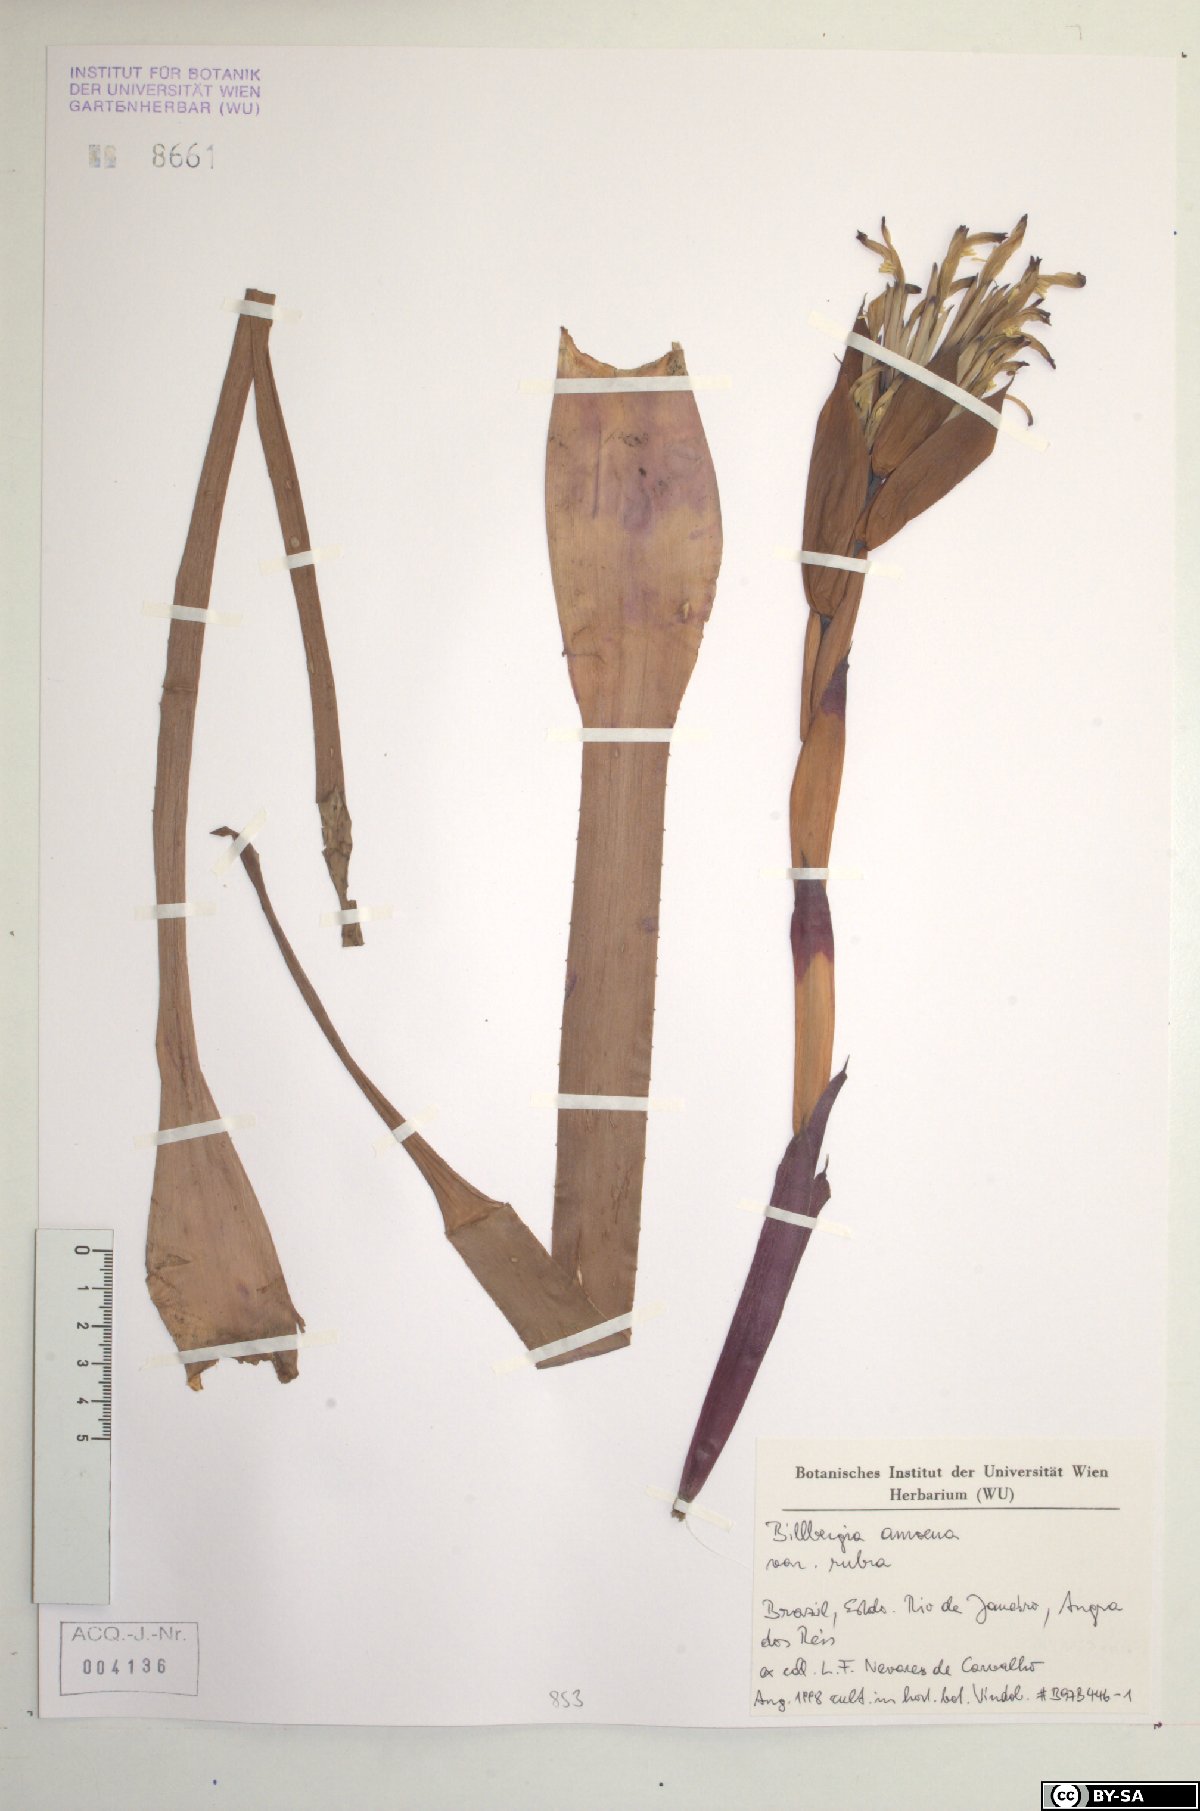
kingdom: Plantae
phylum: Tracheophyta
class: Liliopsida
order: Poales
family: Bromeliaceae
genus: Billbergia
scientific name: Billbergia amoena
